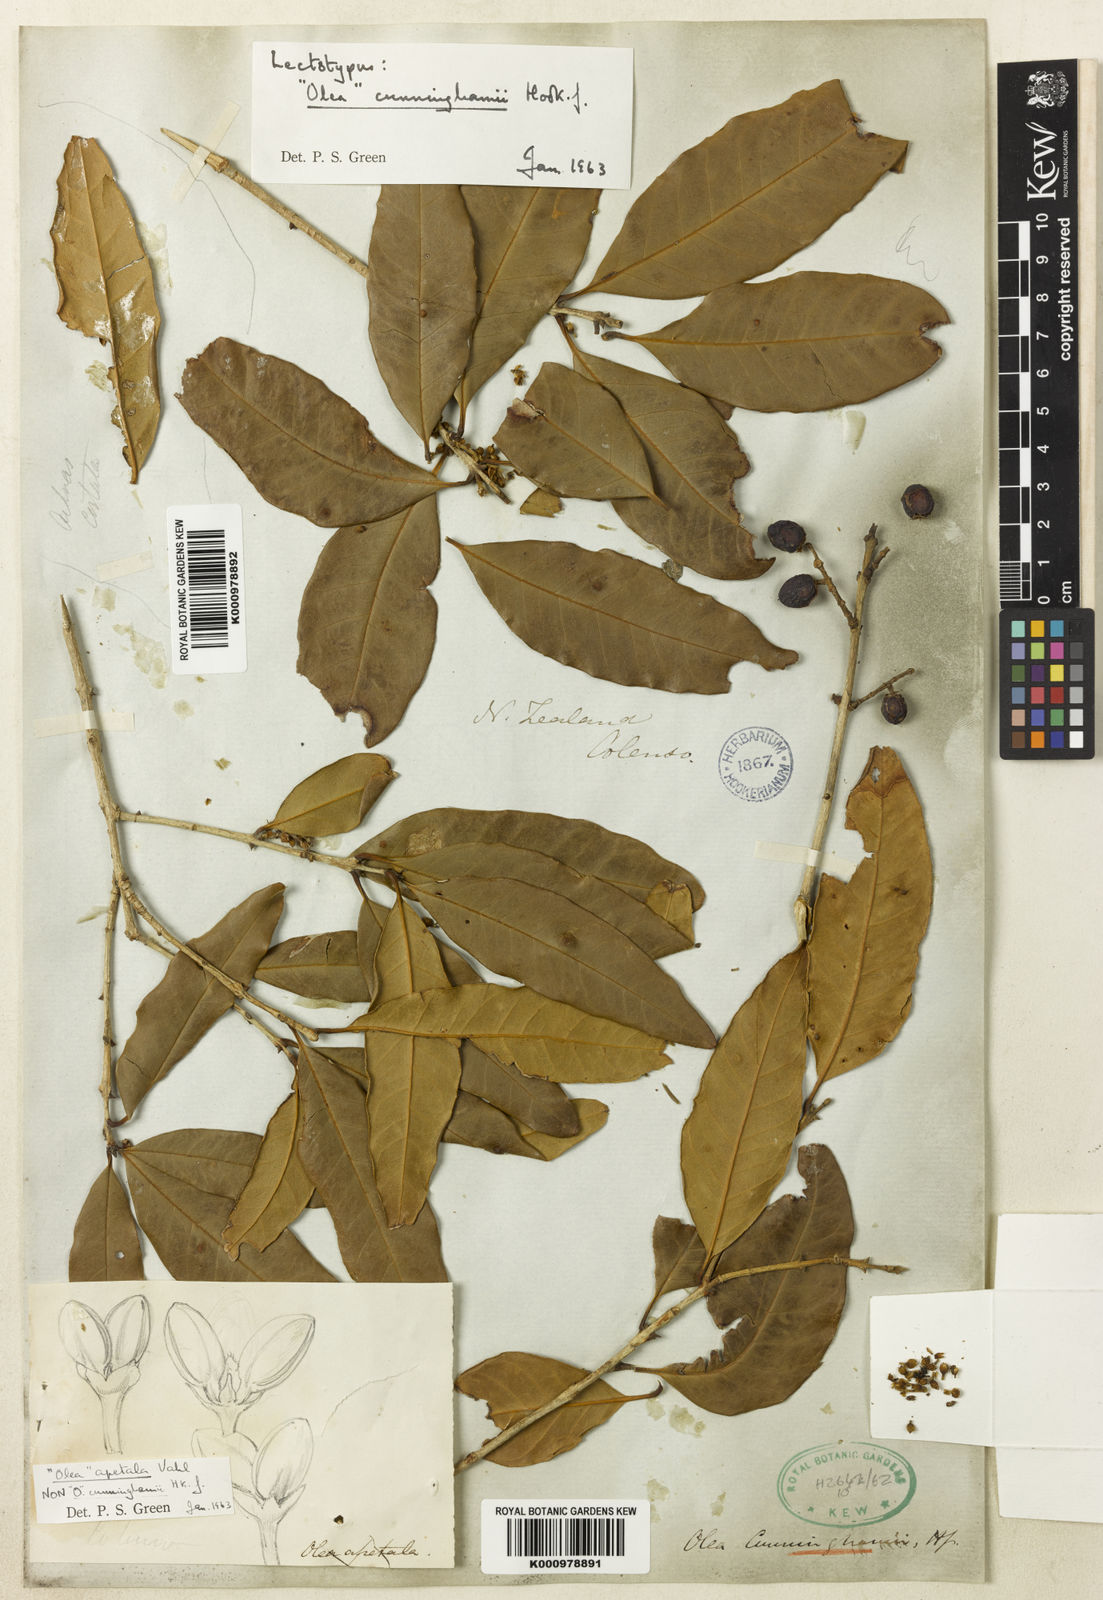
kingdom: Plantae
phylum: Tracheophyta
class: Magnoliopsida
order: Lamiales
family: Oleaceae
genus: Nestegis
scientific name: Nestegis cunninghamii
